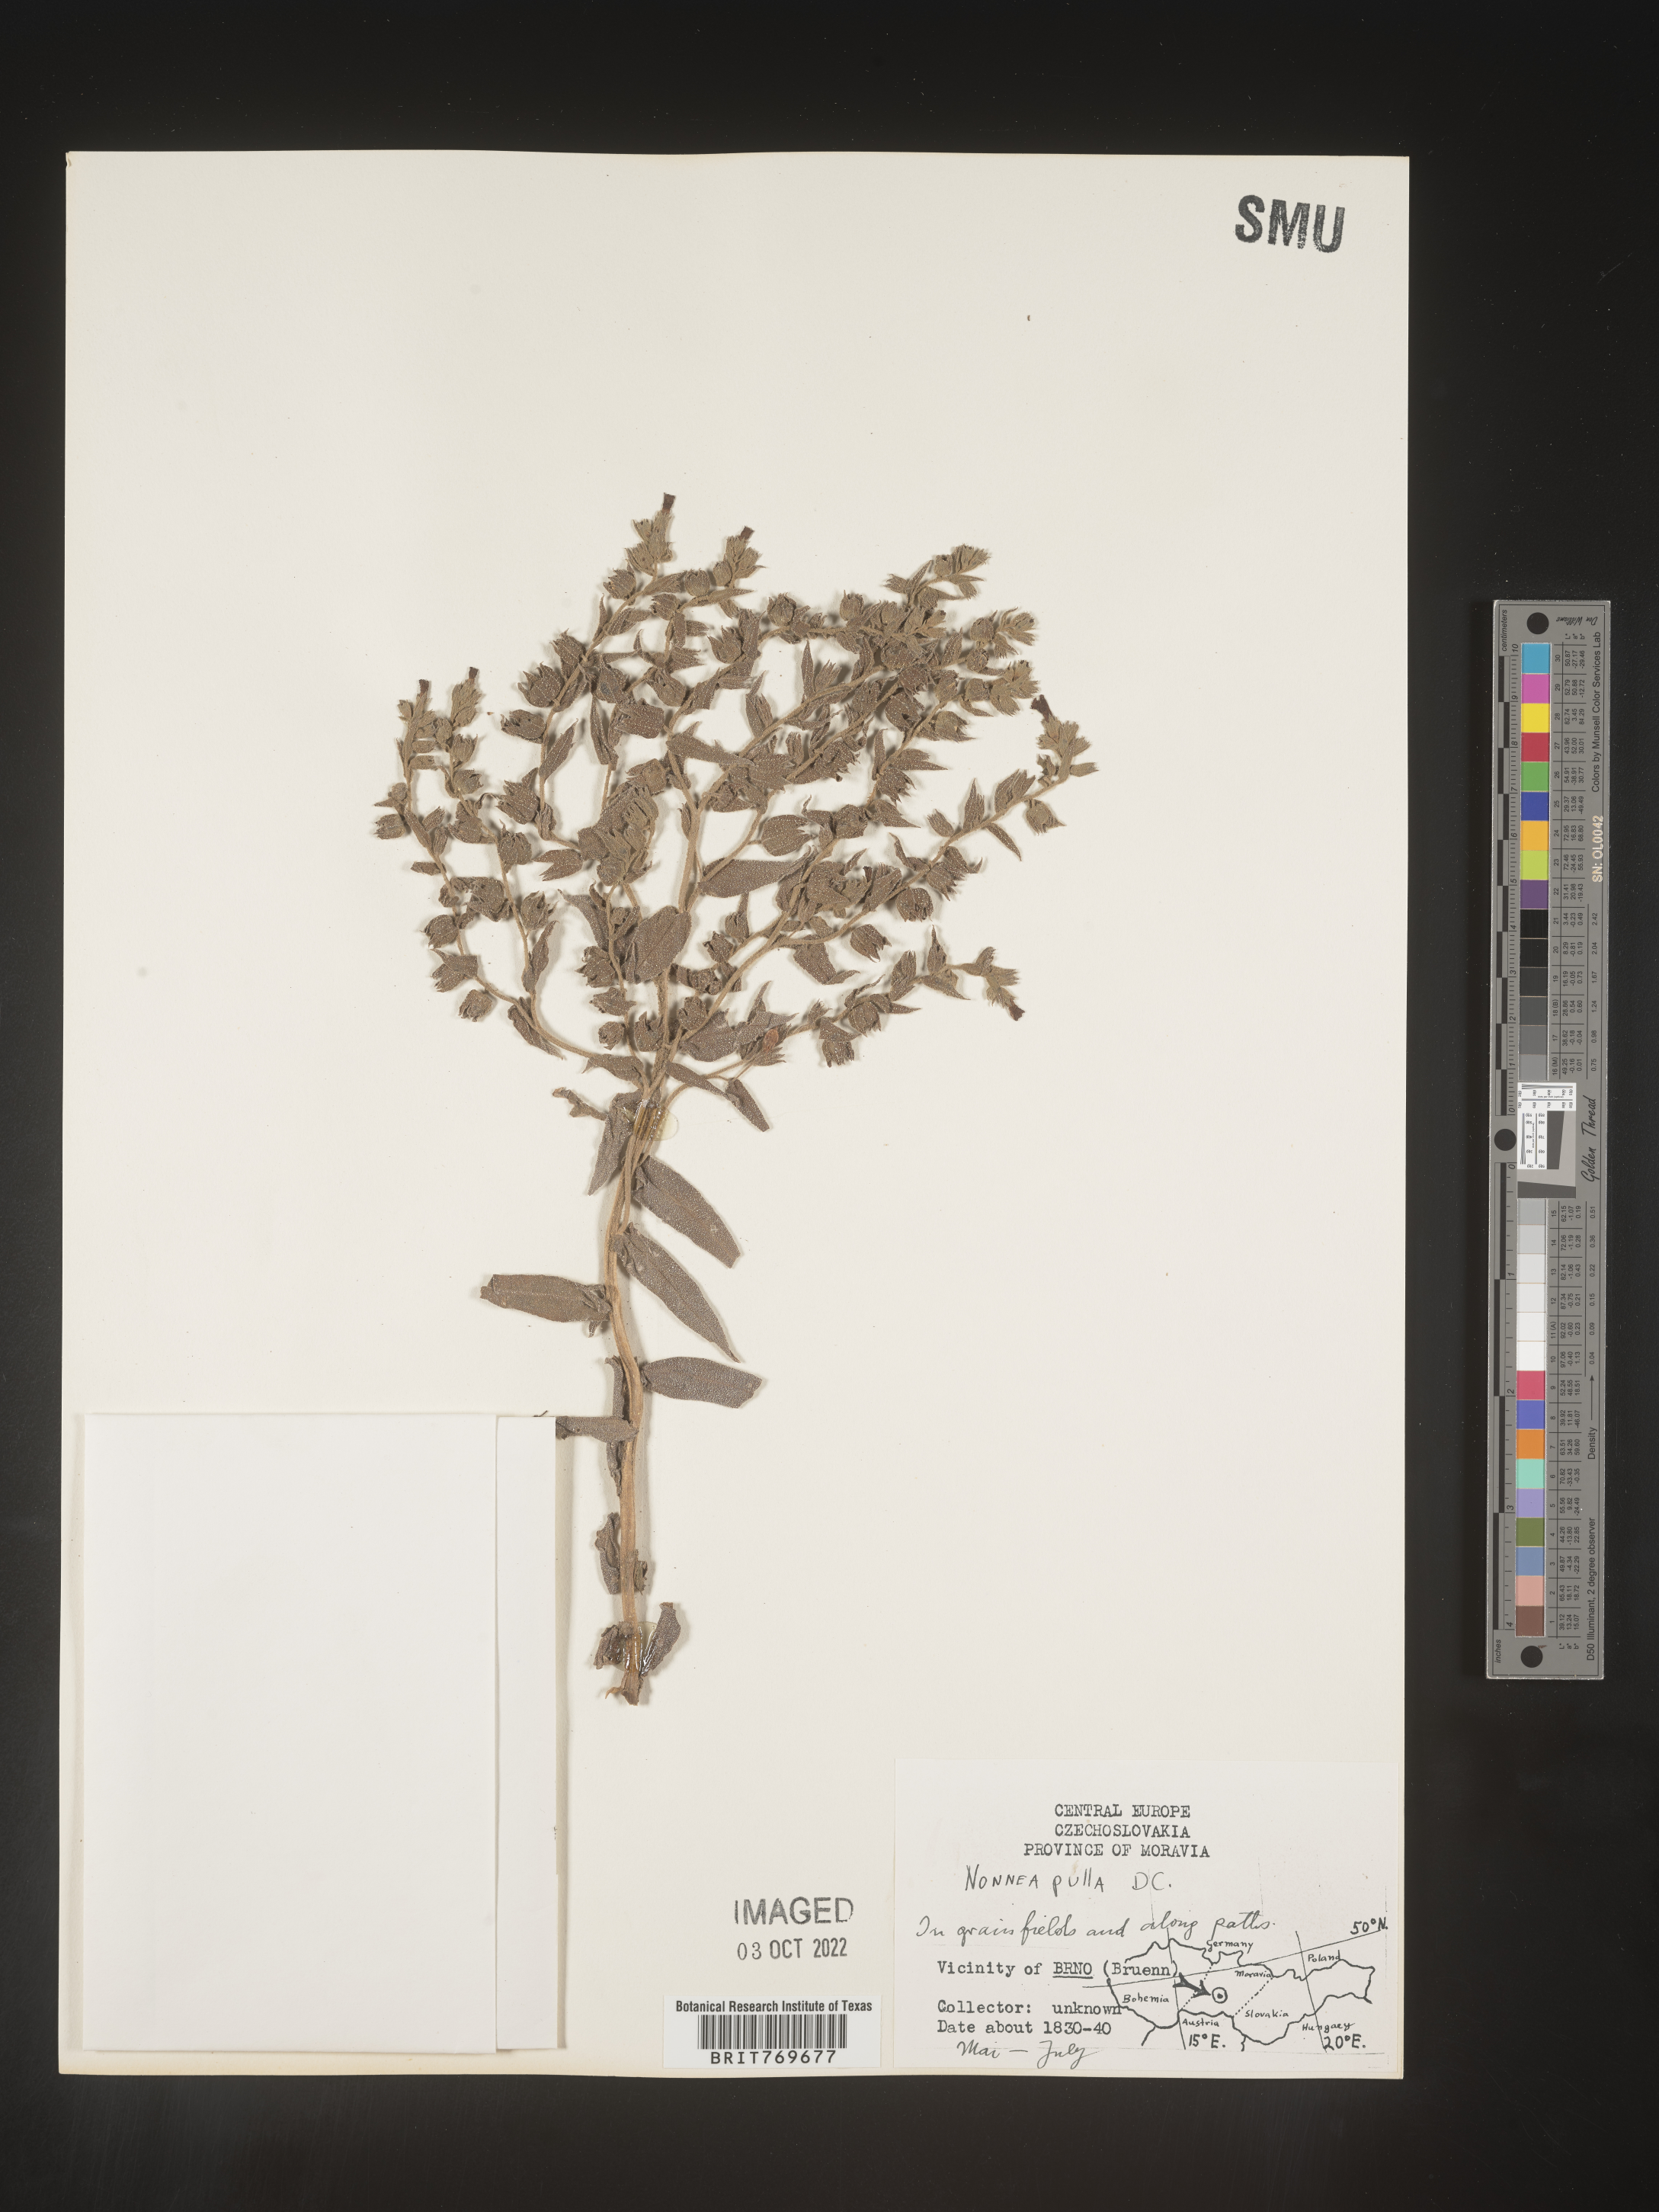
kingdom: Plantae
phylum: Tracheophyta
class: Magnoliopsida
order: Boraginales
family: Boraginaceae
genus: Nonea
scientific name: Nonea lutea
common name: Yellow nonea
